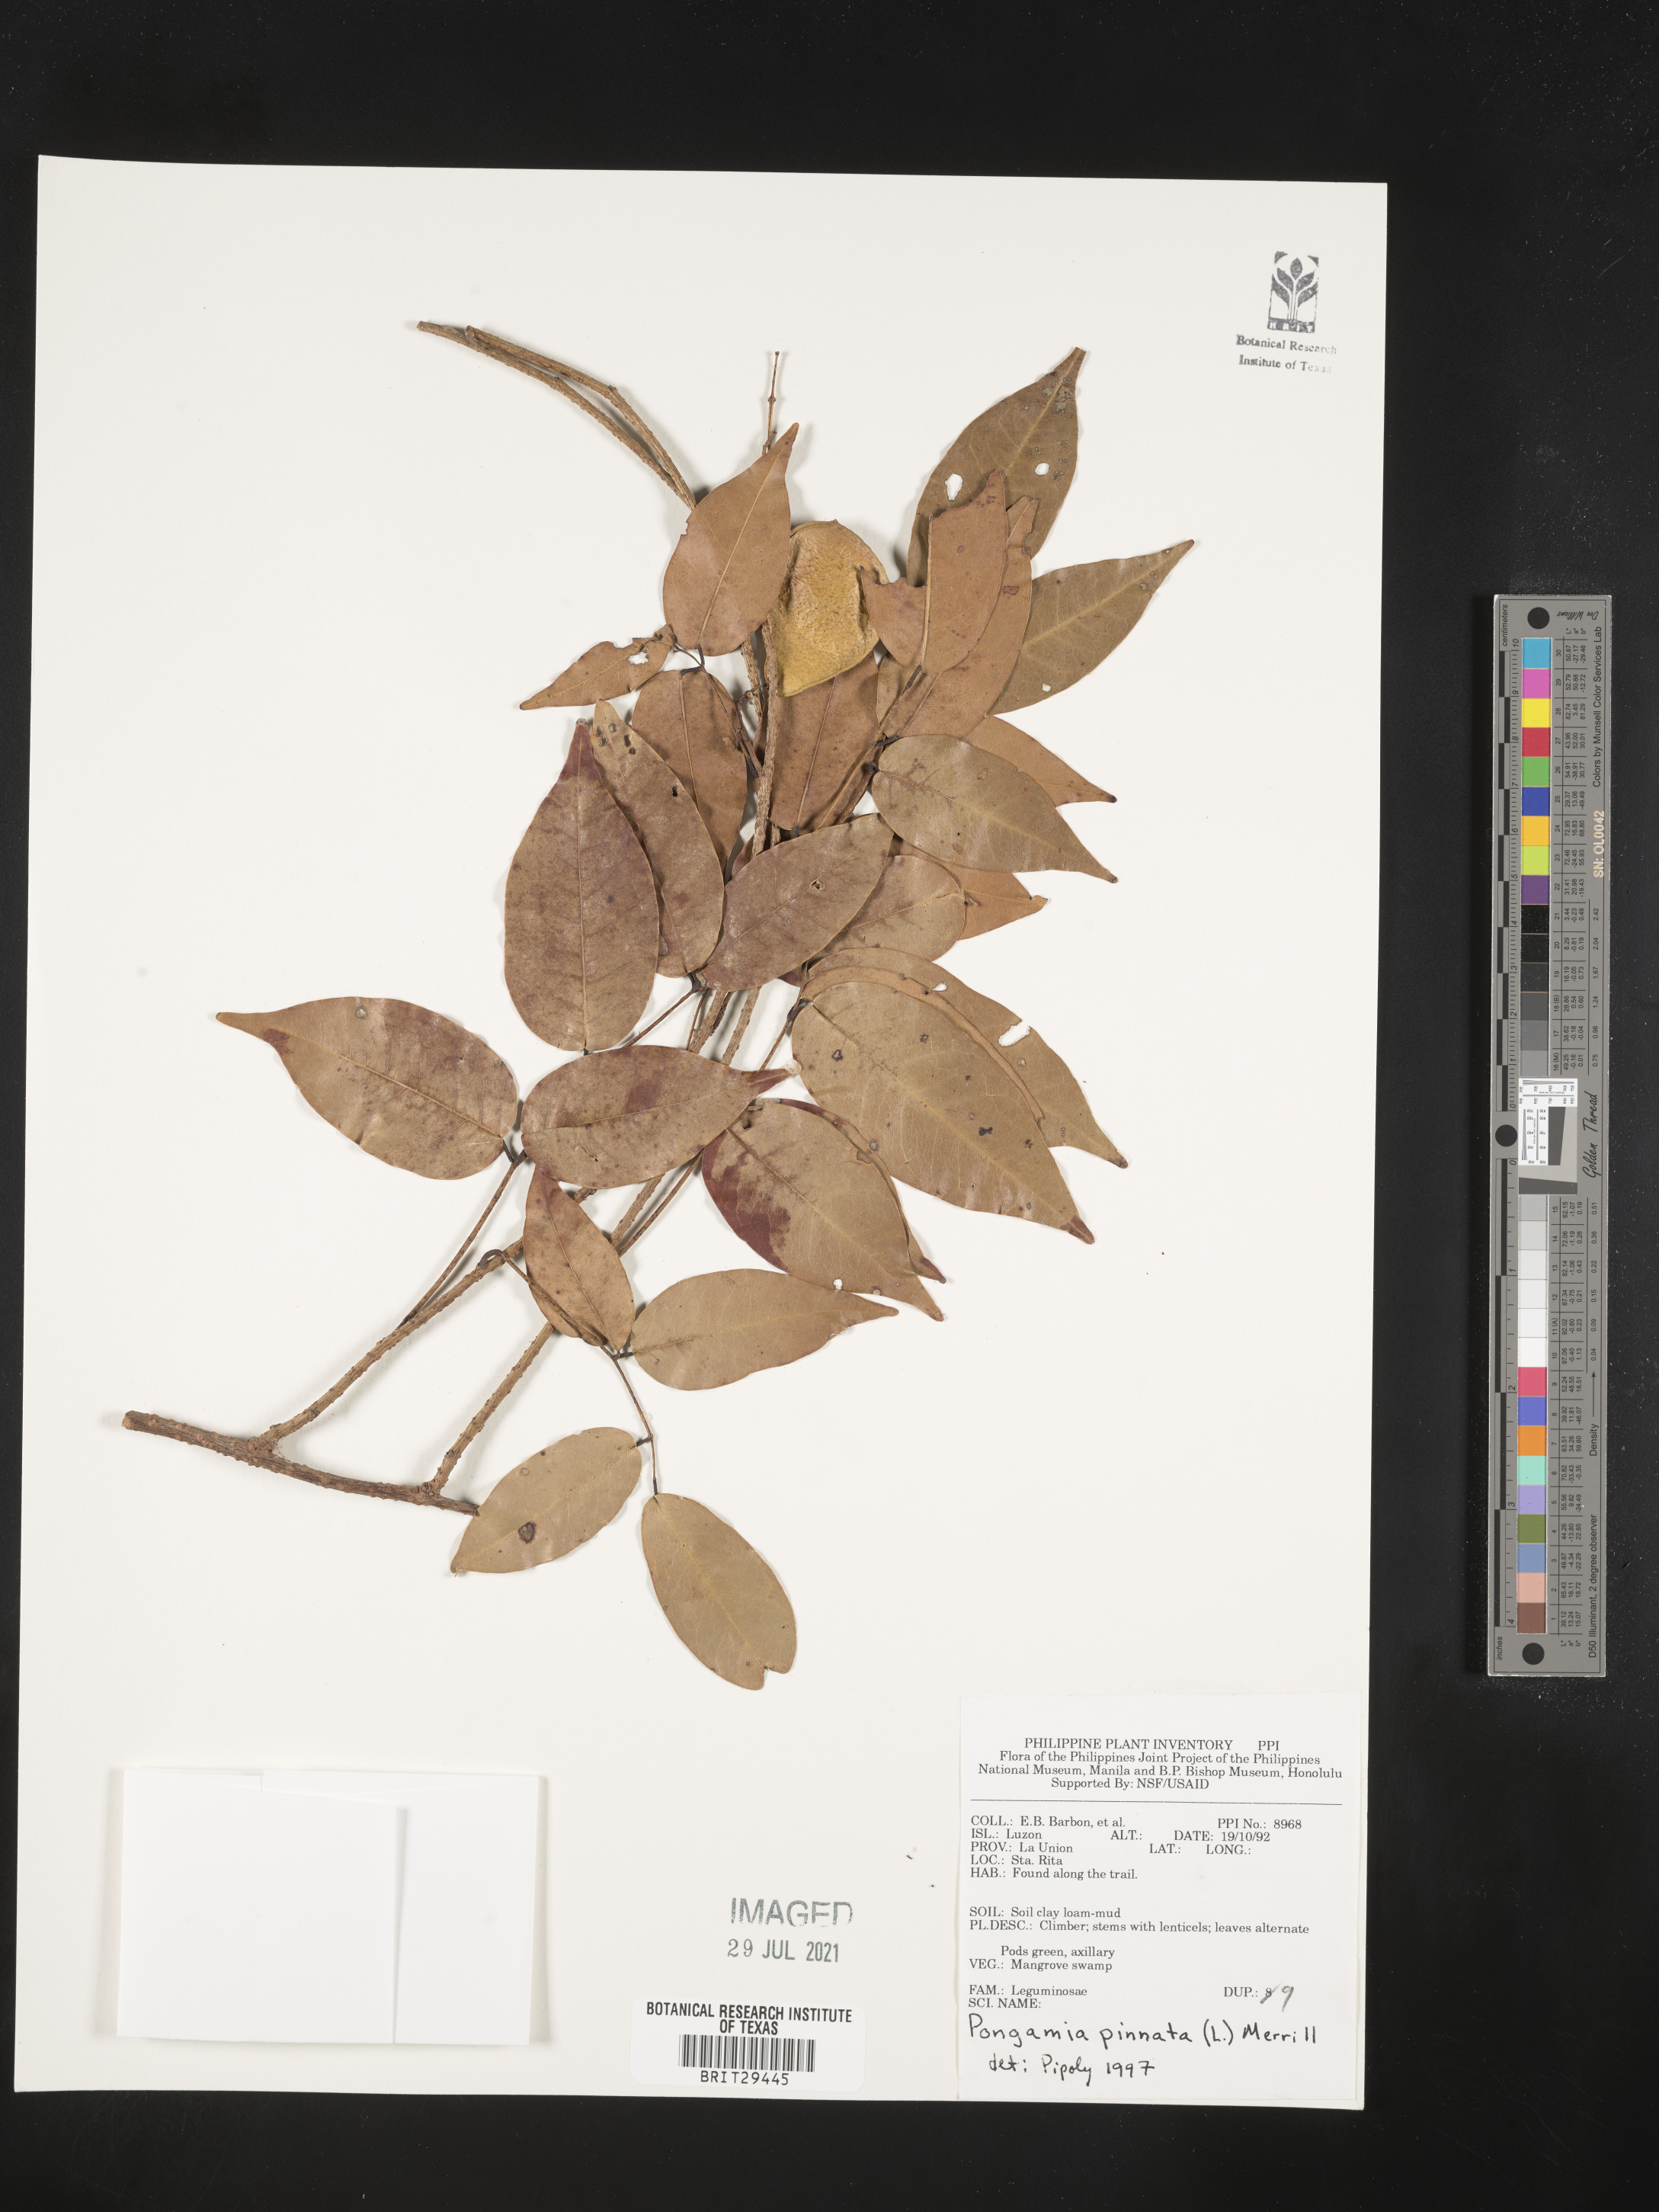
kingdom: Plantae
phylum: Tracheophyta
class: Magnoliopsida
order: Fabales
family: Fabaceae
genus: Pongamia
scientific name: Pongamia pinnata
